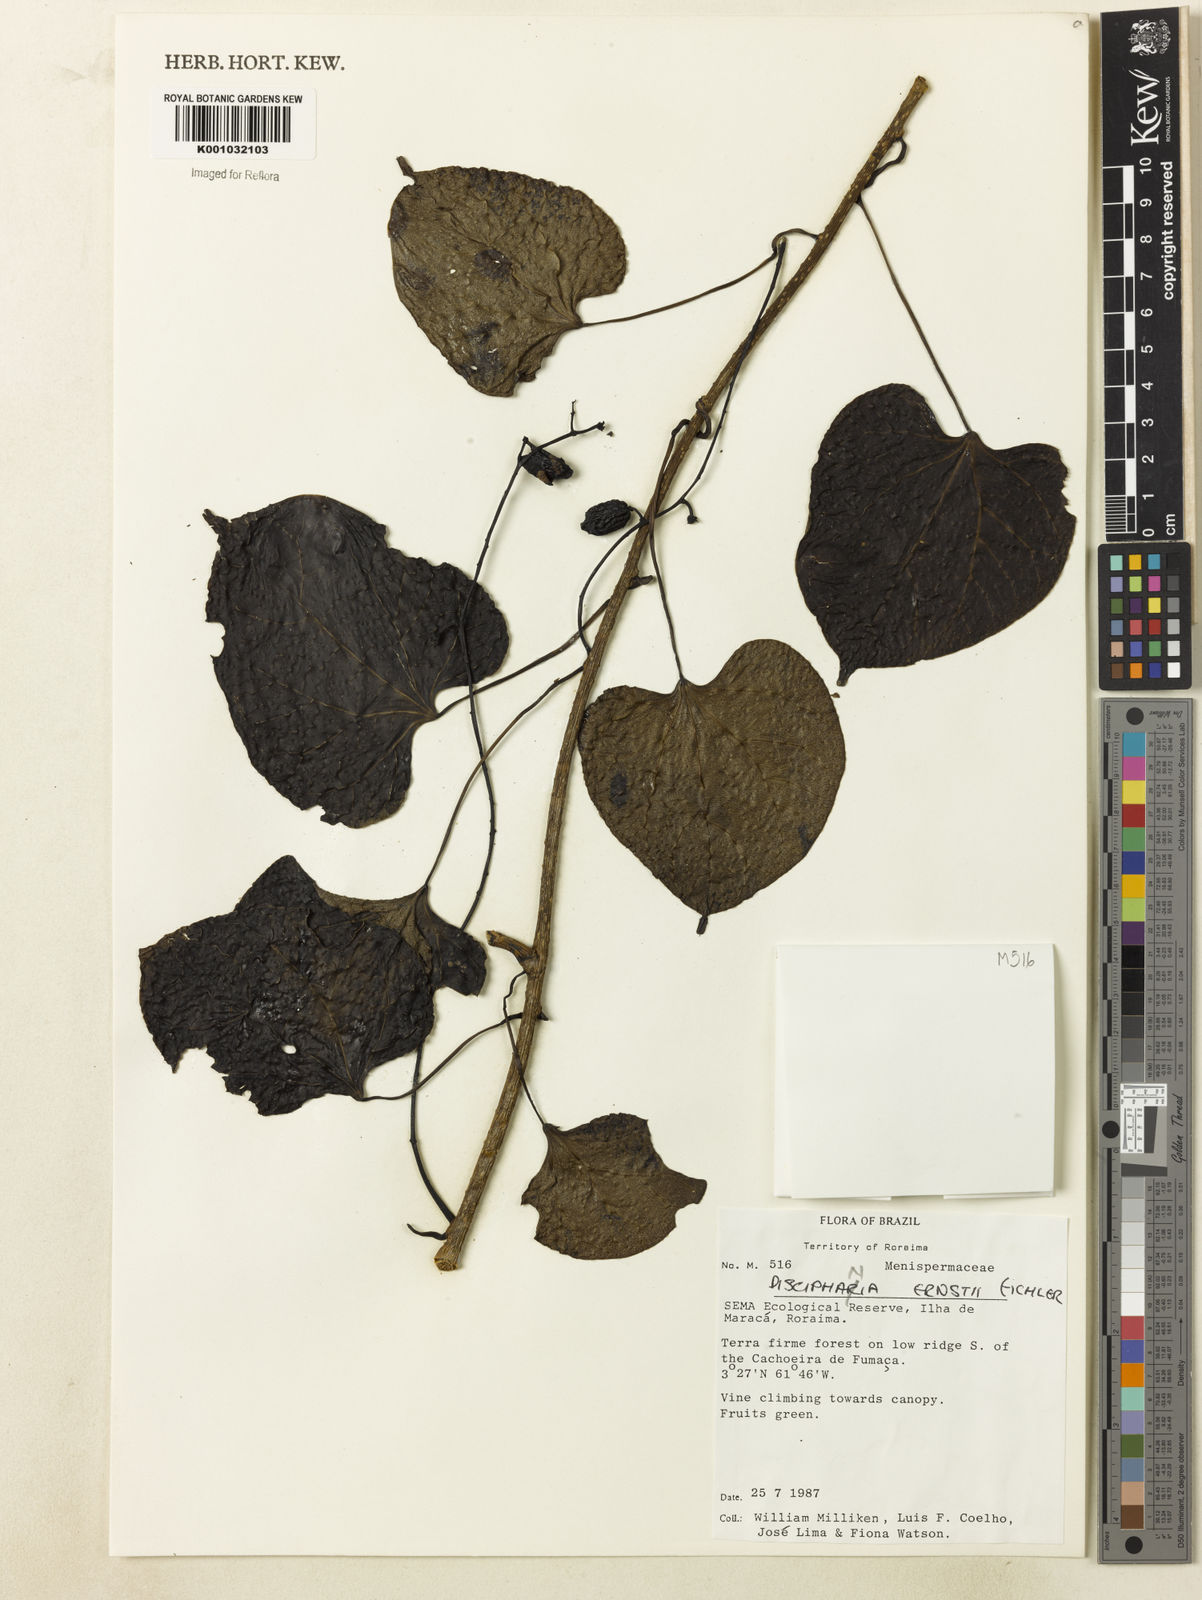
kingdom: Plantae
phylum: Tracheophyta
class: Magnoliopsida
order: Ranunculales
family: Menispermaceae
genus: Disciphania
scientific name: Disciphania ernstii
